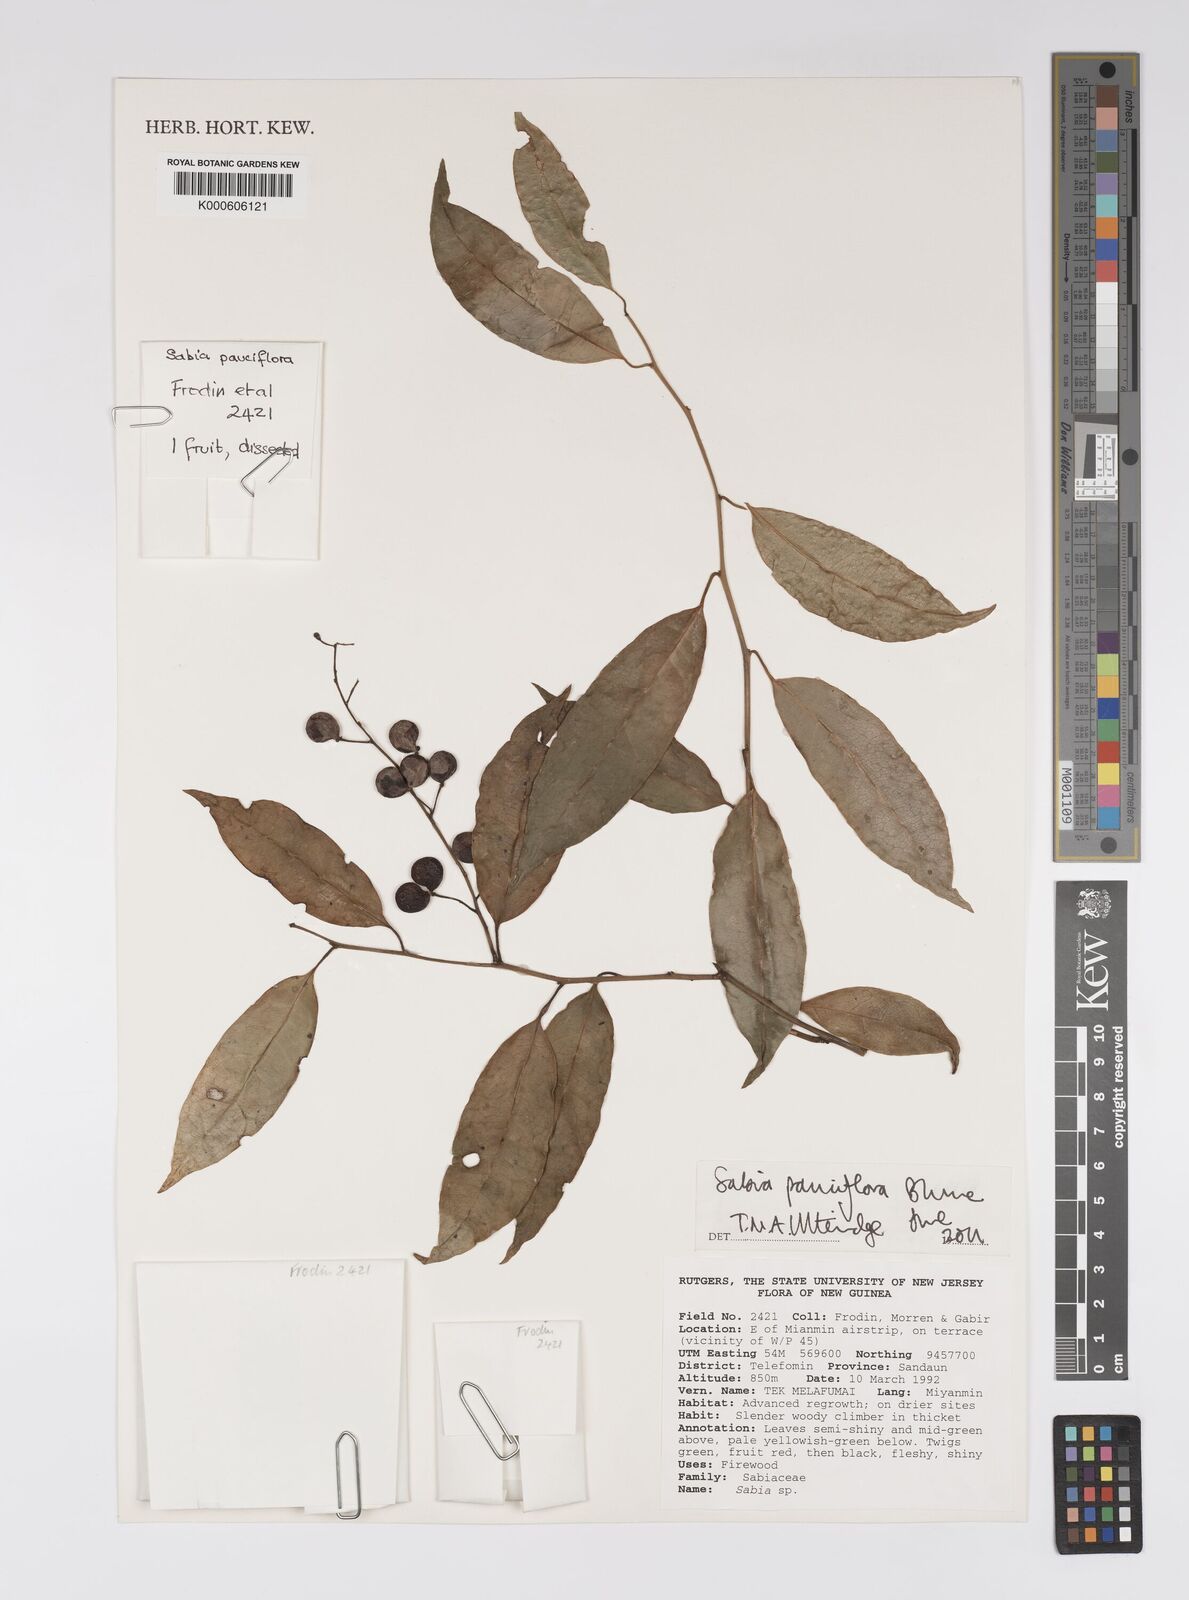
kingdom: Plantae
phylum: Tracheophyta
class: Magnoliopsida
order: Proteales
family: Sabiaceae
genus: Sabia
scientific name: Sabia pauciflora
